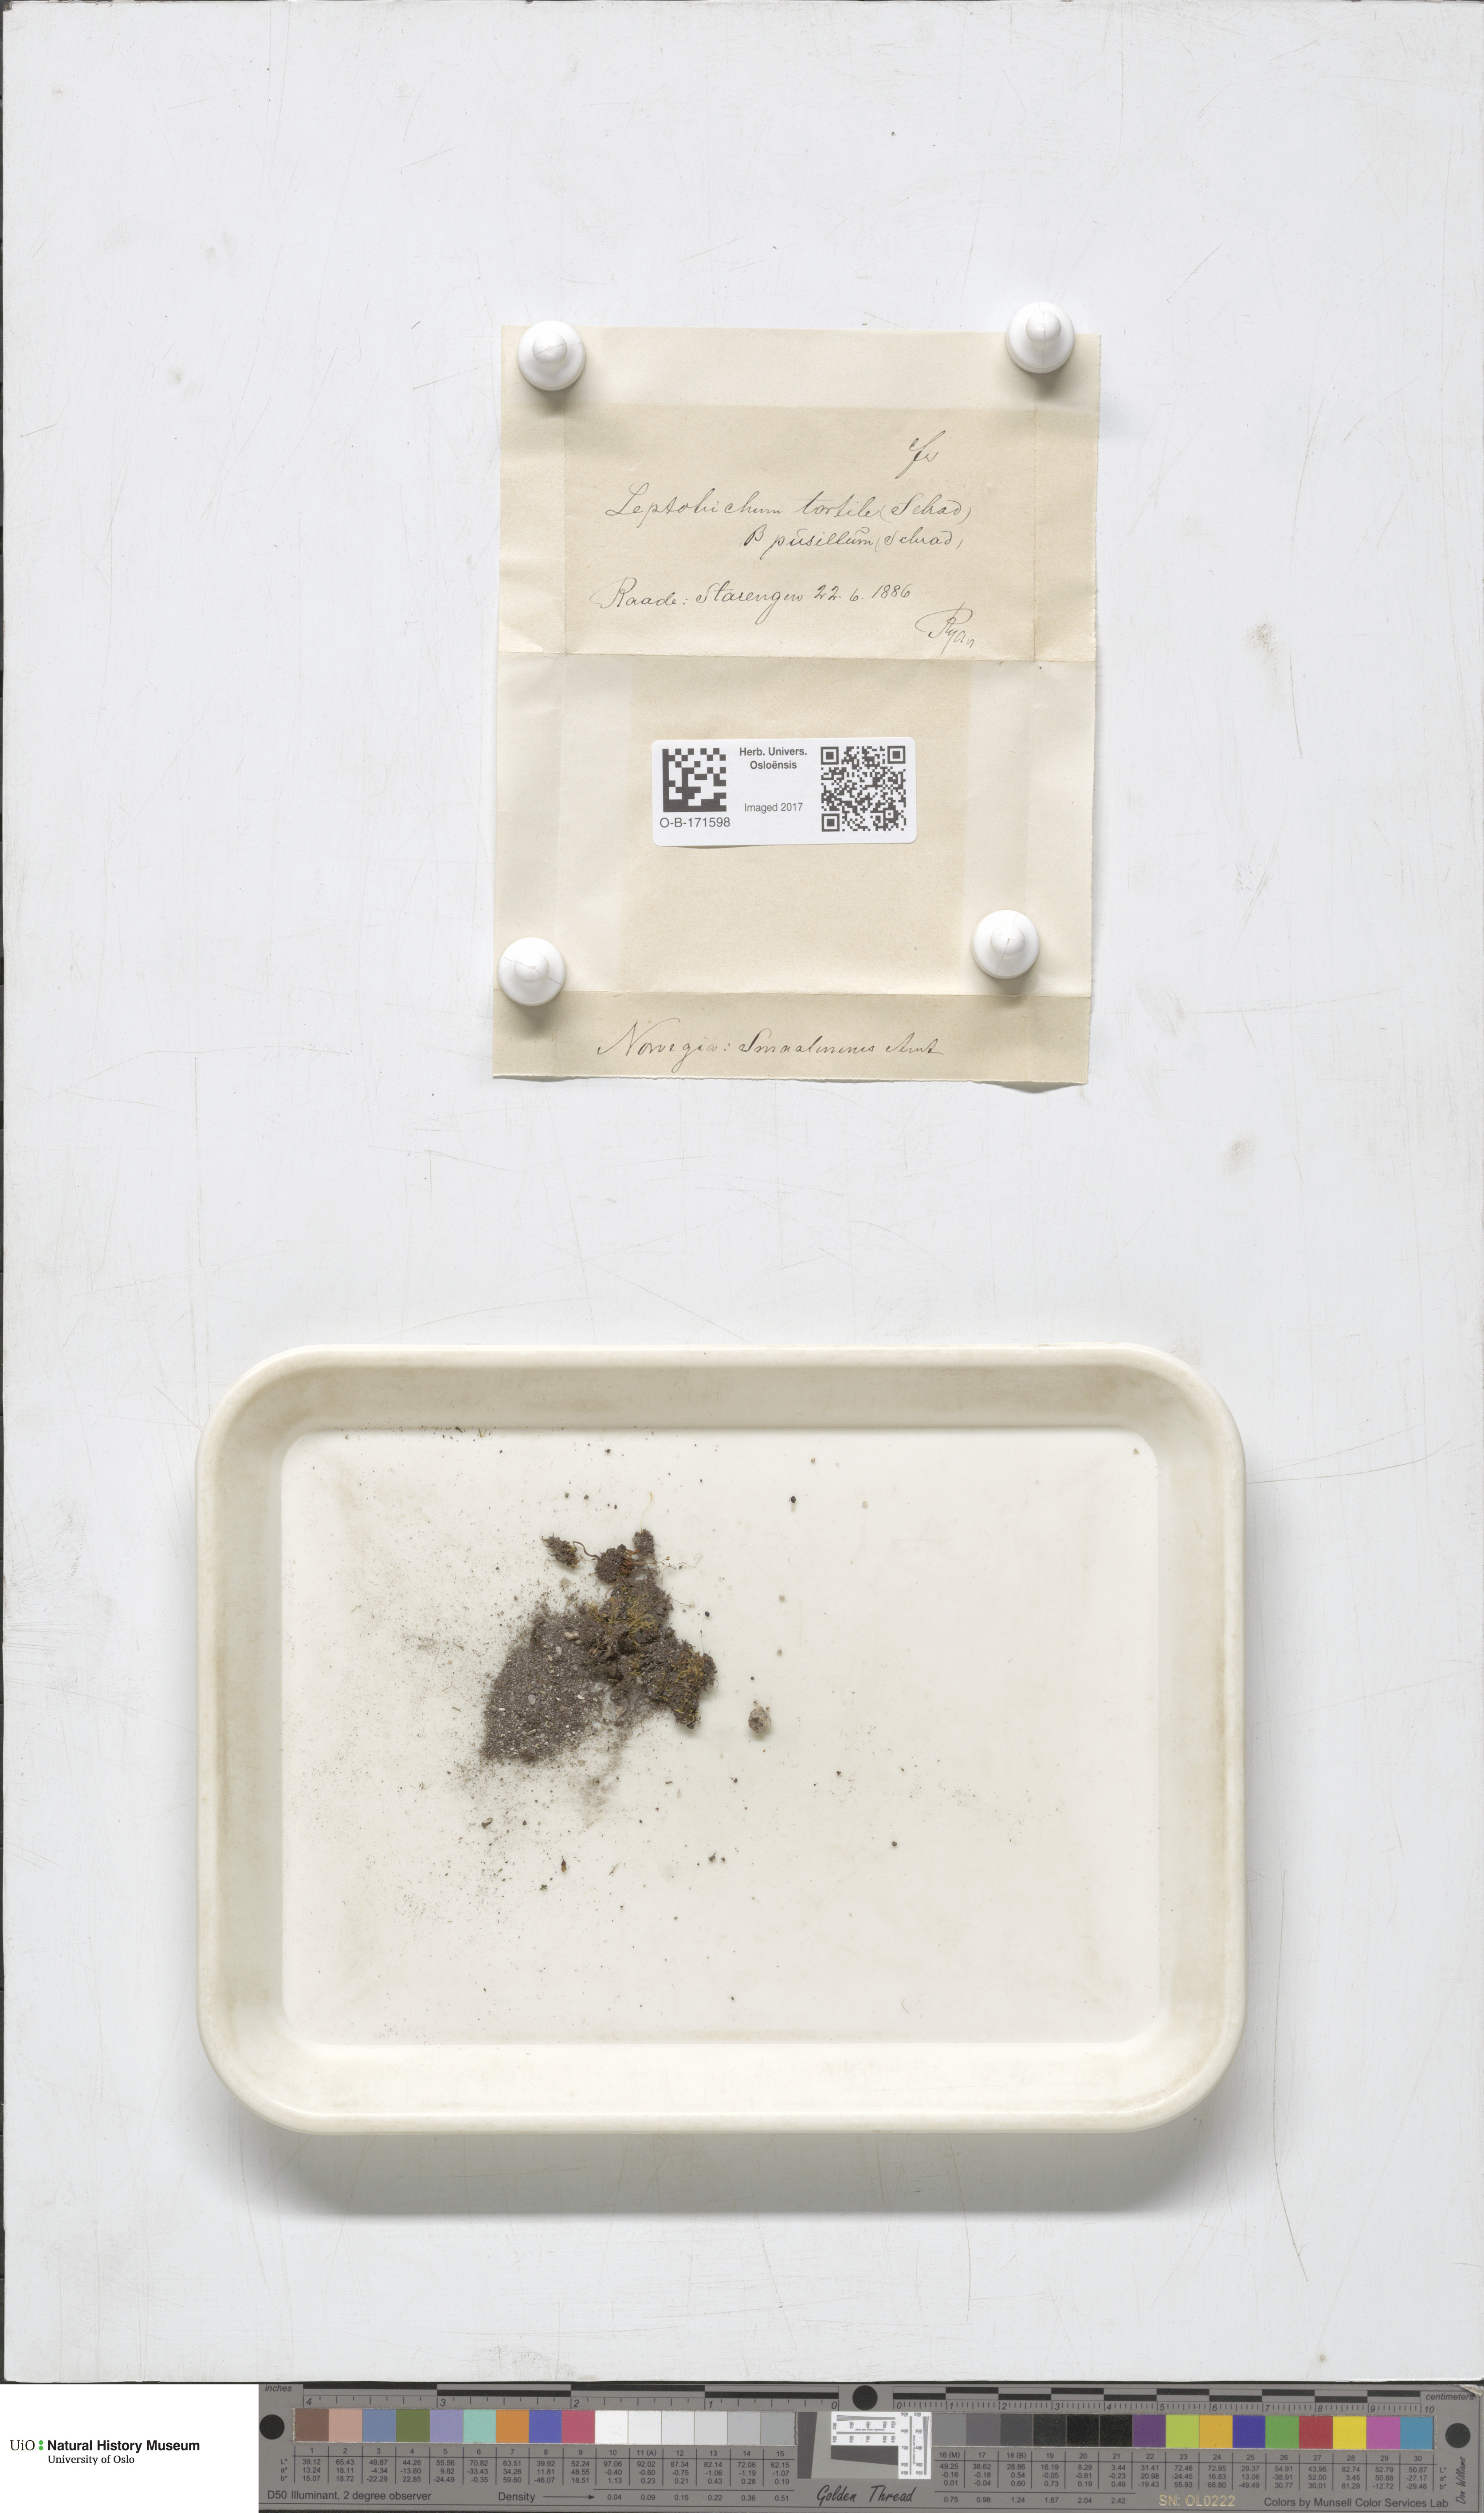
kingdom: Plantae
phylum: Bryophyta
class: Bryopsida
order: Dicranales
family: Ditrichaceae
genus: Ditrichum
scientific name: Ditrichum pusillum
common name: Brown cow-hair moss
